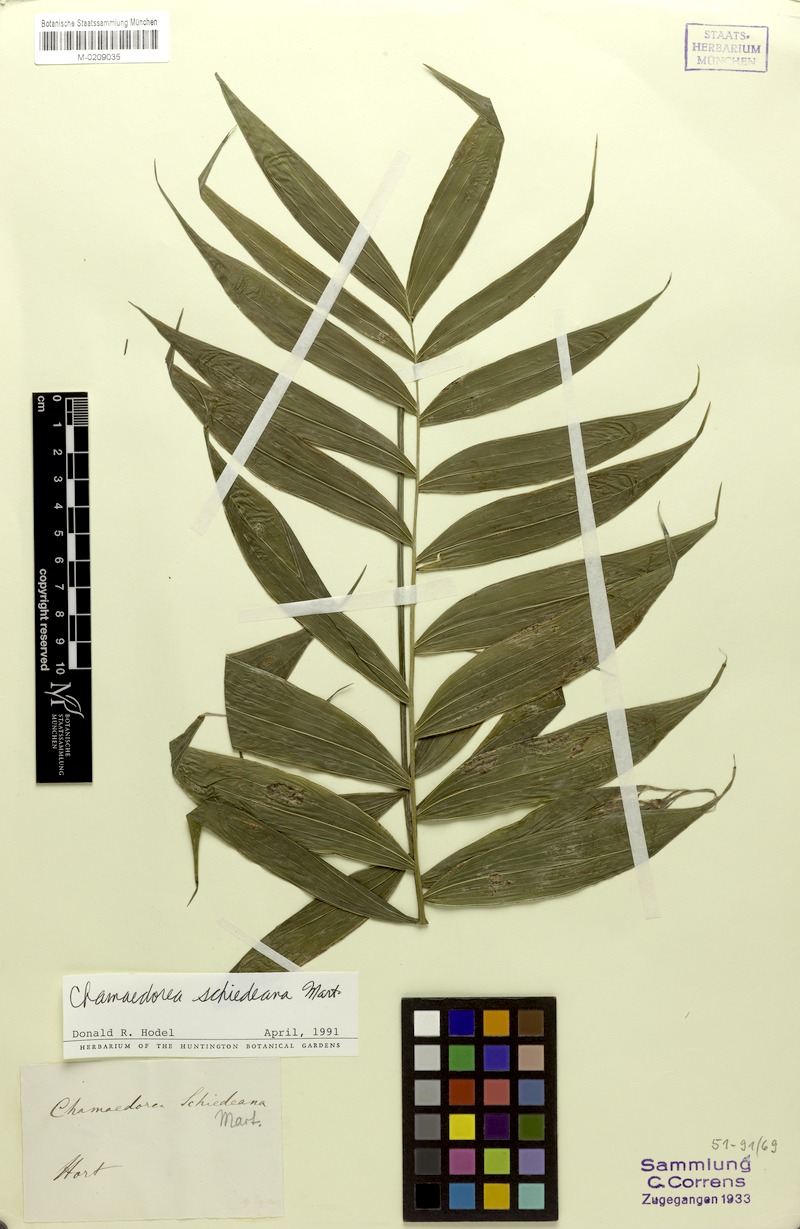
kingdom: Plantae
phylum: Tracheophyta
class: Liliopsida
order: Arecales
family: Arecaceae
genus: Chamaedorea
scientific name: Chamaedorea schiedeana
